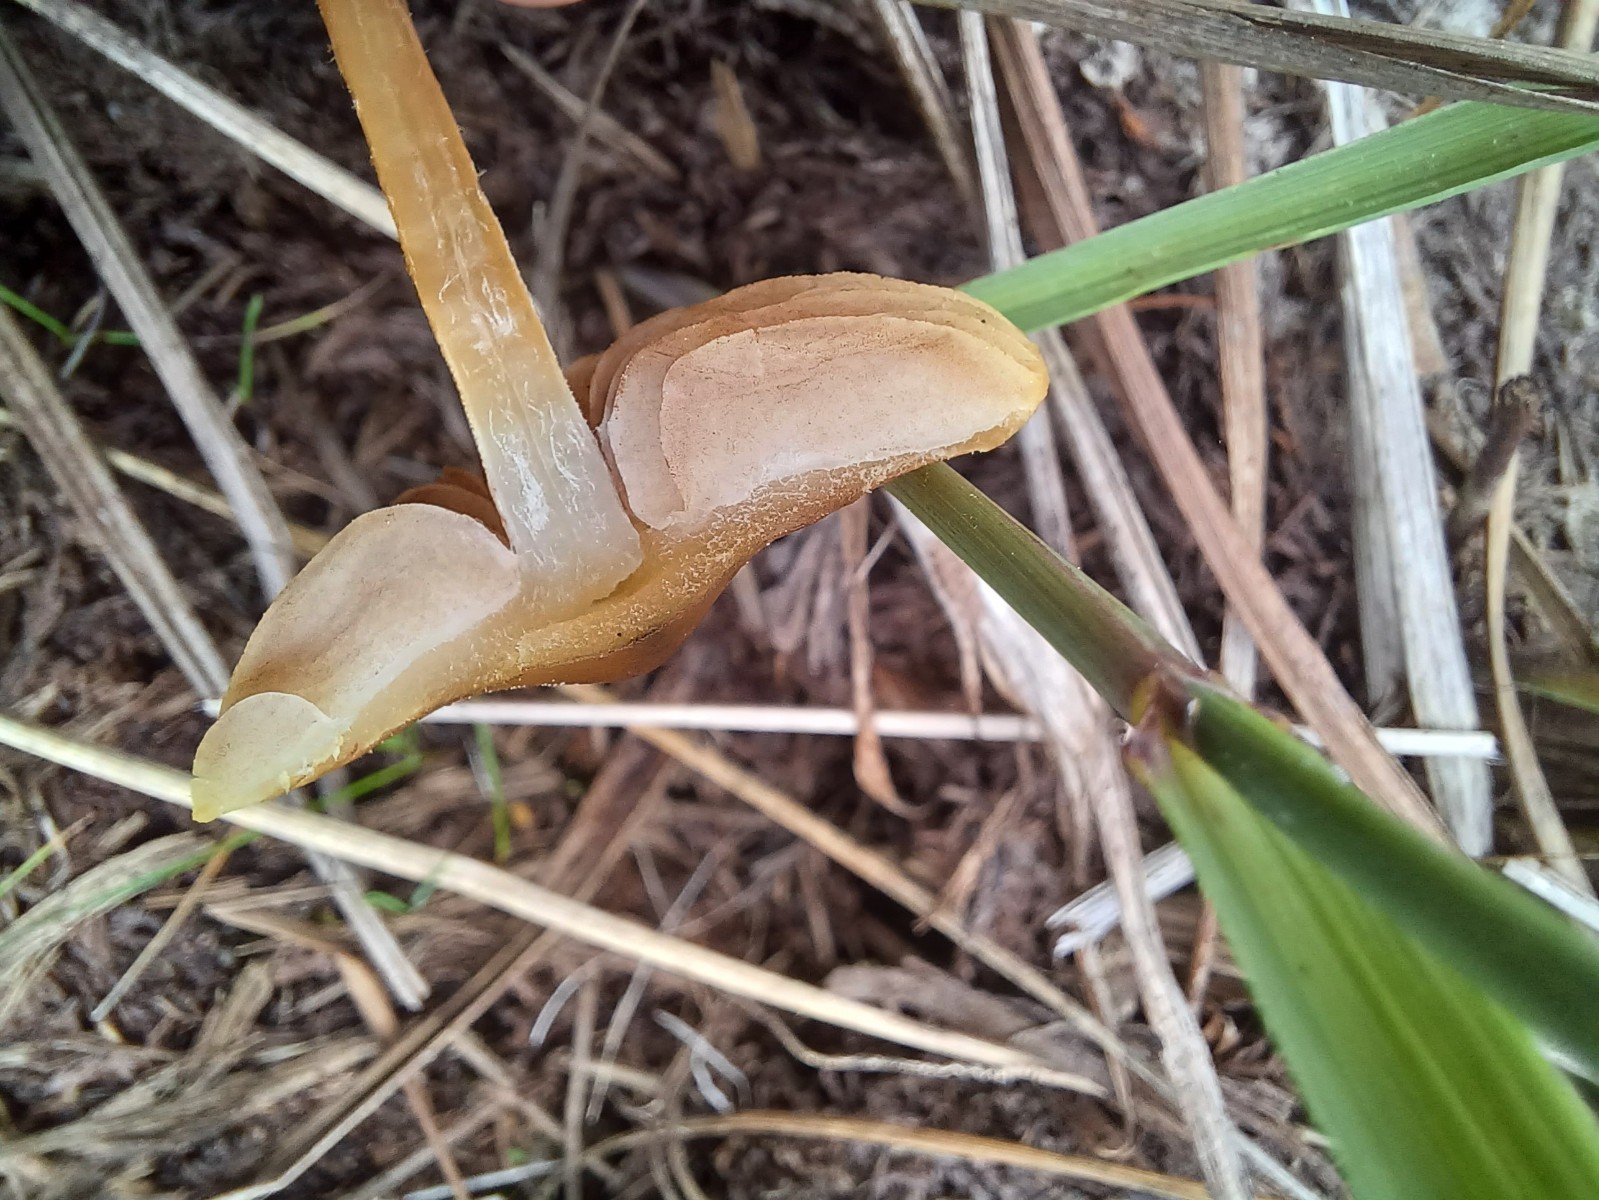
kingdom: Fungi
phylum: Basidiomycota
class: Agaricomycetes
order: Agaricales
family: Strophariaceae
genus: Agrocybe
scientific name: Agrocybe pediades
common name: almindelig agerhat
